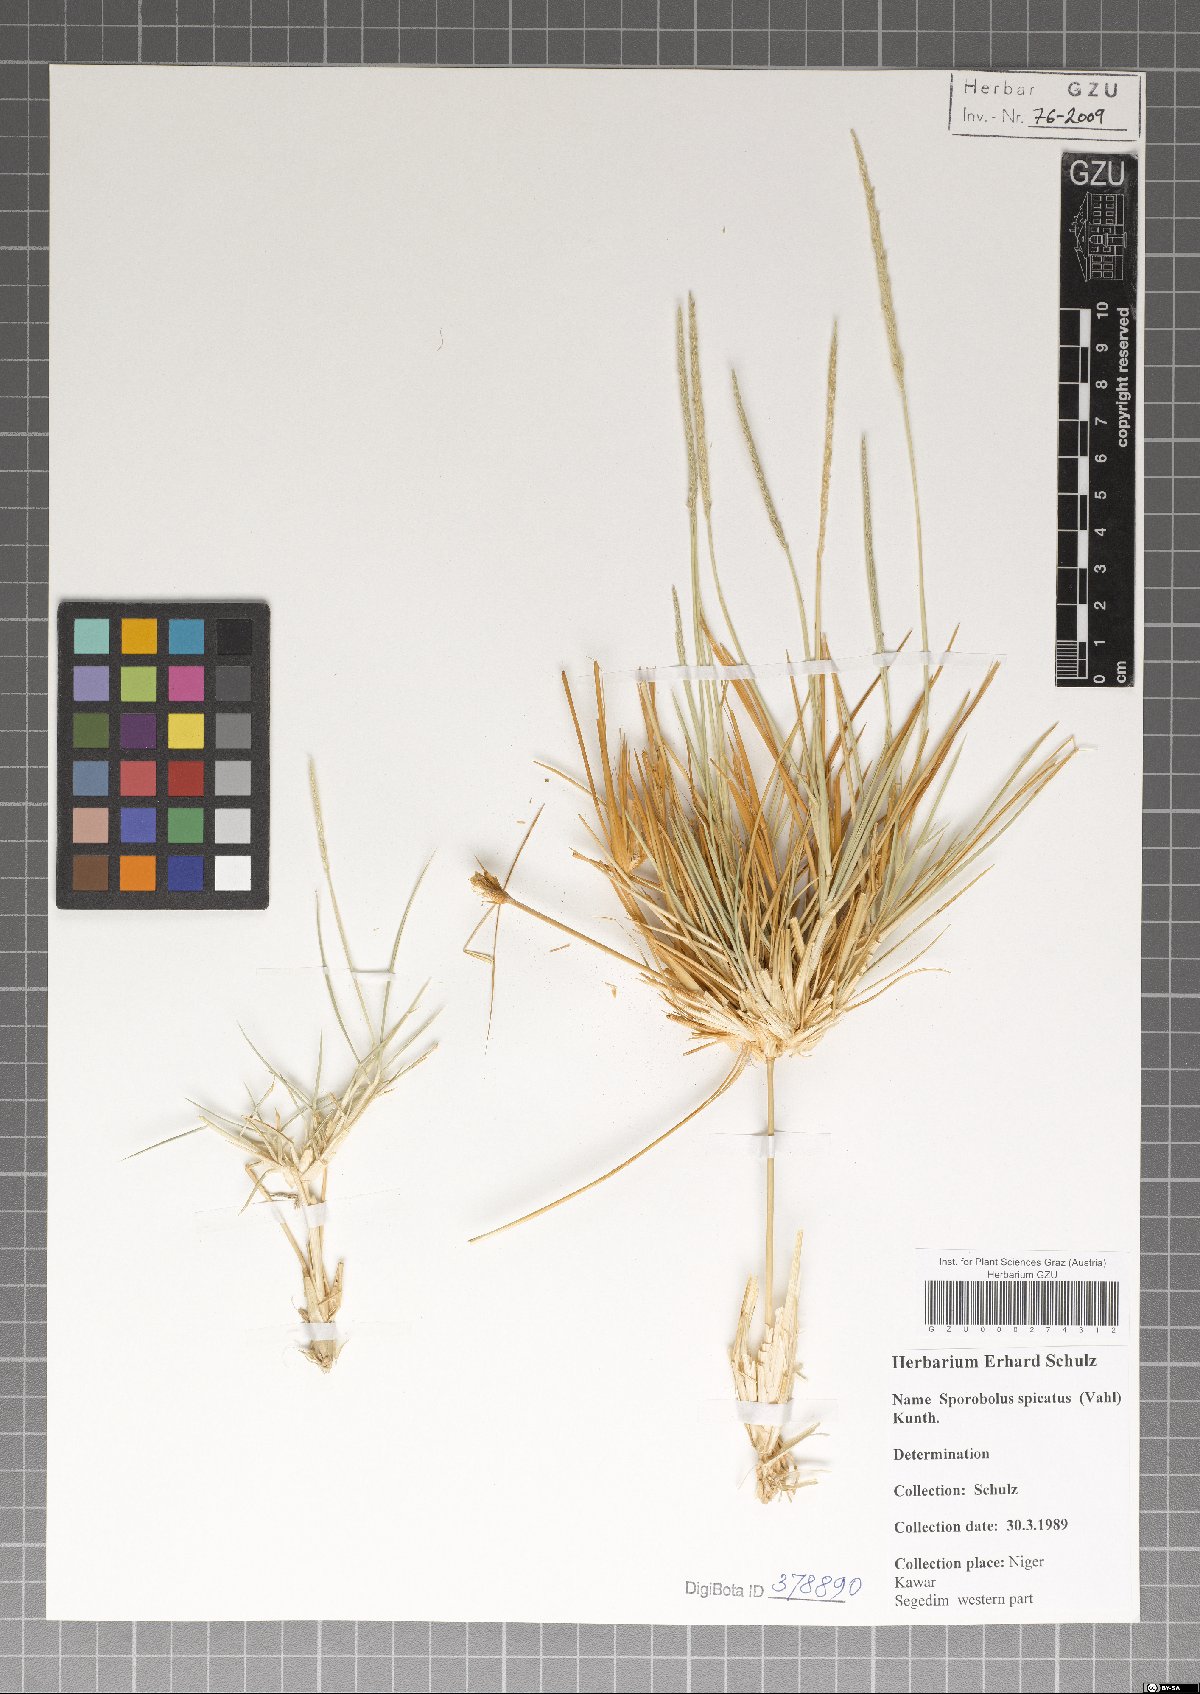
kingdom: Plantae
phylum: Tracheophyta
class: Liliopsida
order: Poales
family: Poaceae
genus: Sporobolus
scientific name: Sporobolus spicatus
